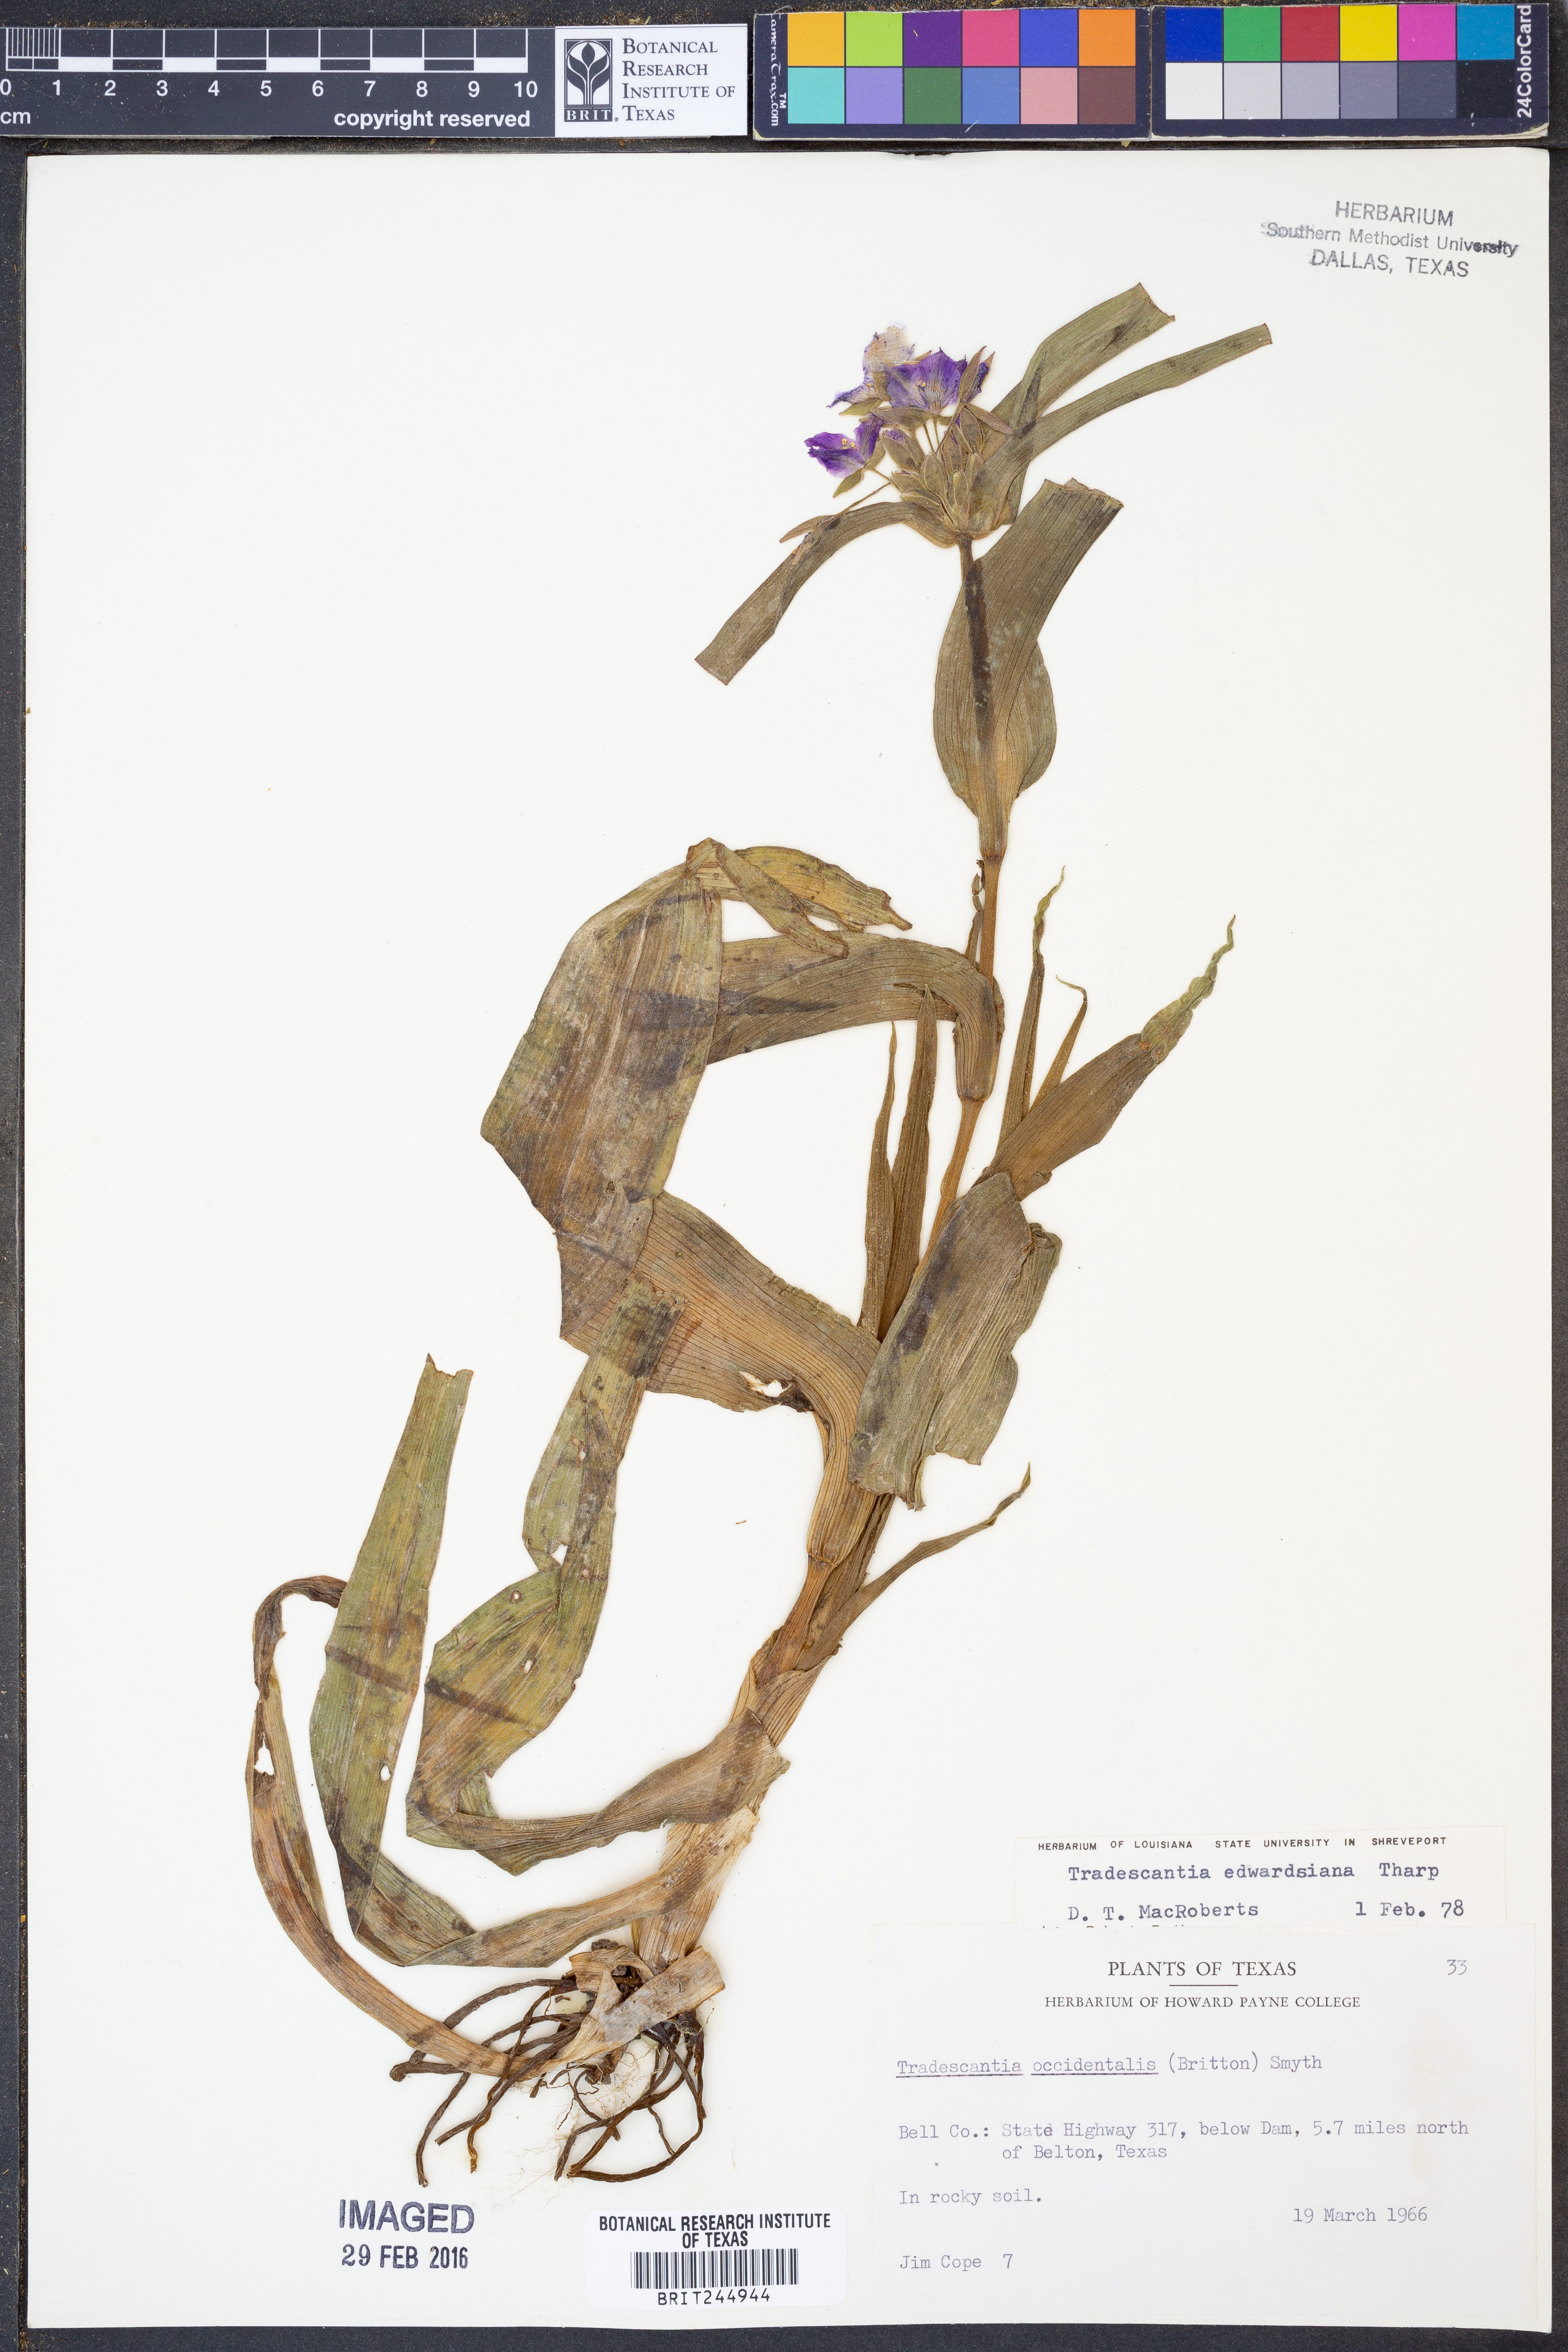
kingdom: Plantae
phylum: Tracheophyta
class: Liliopsida
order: Commelinales
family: Commelinaceae
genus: Tradescantia
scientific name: Tradescantia edwardsiana
